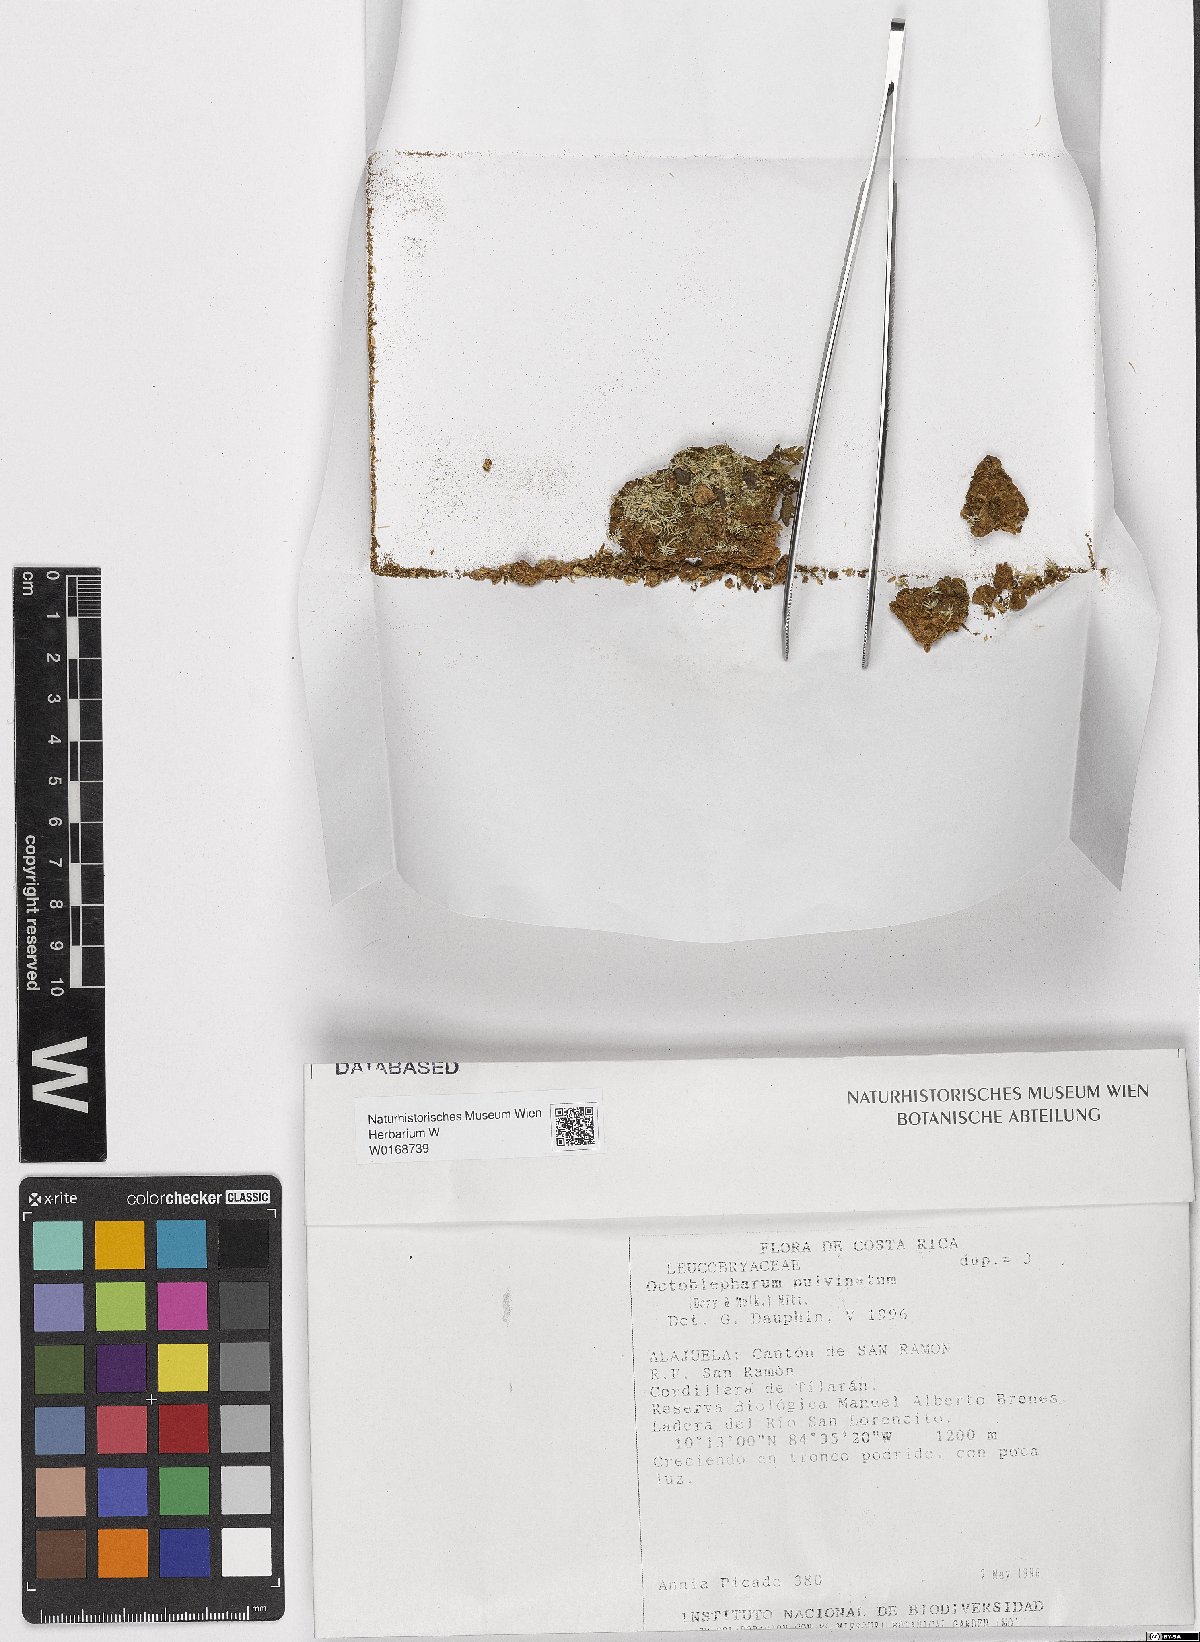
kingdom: Plantae
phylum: Bryophyta
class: Bryopsida
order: Dicranales
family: Octoblepharaceae
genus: Octoblepharum
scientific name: Octoblepharum pulvinatum
